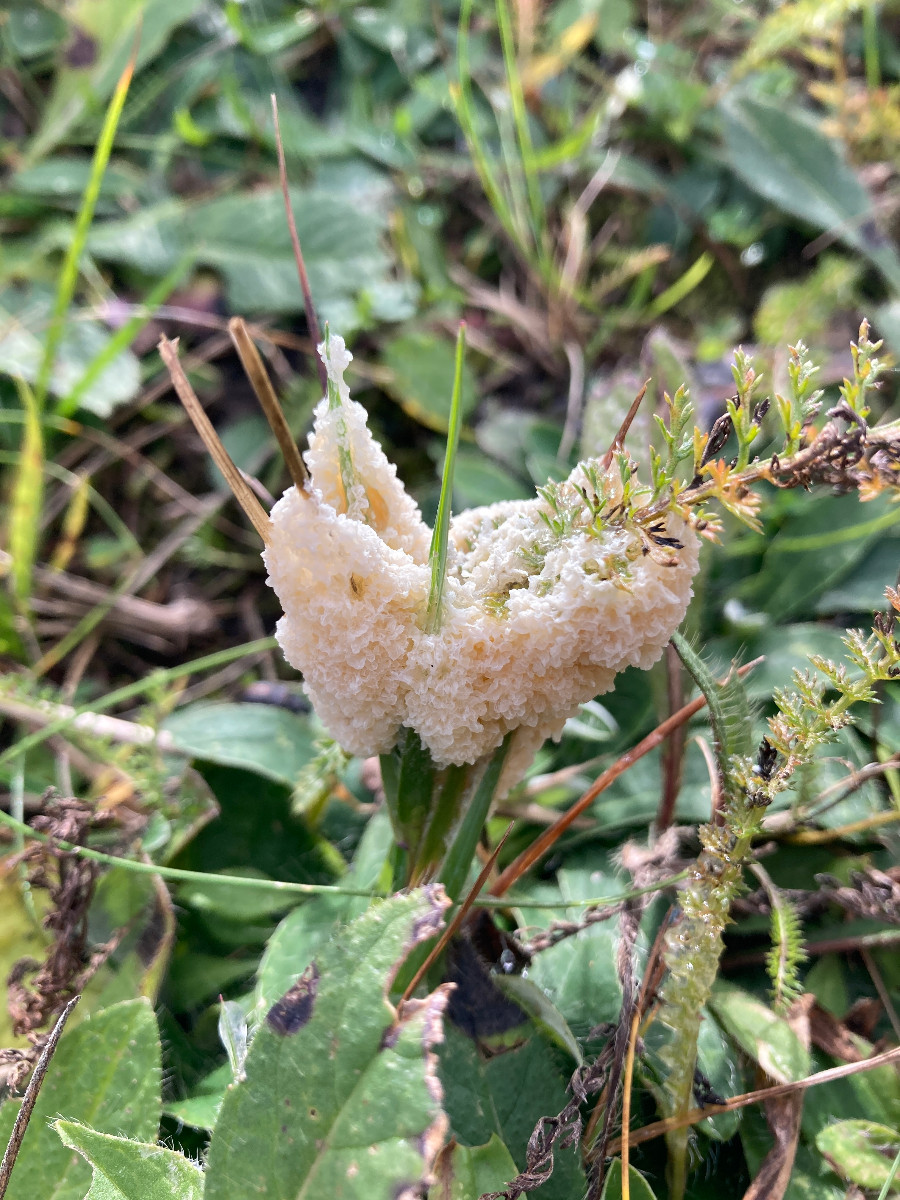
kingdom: Protozoa
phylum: Mycetozoa
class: Myxomycetes
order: Physarales
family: Physaraceae
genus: Didymium
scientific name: Didymium
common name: urteskum
